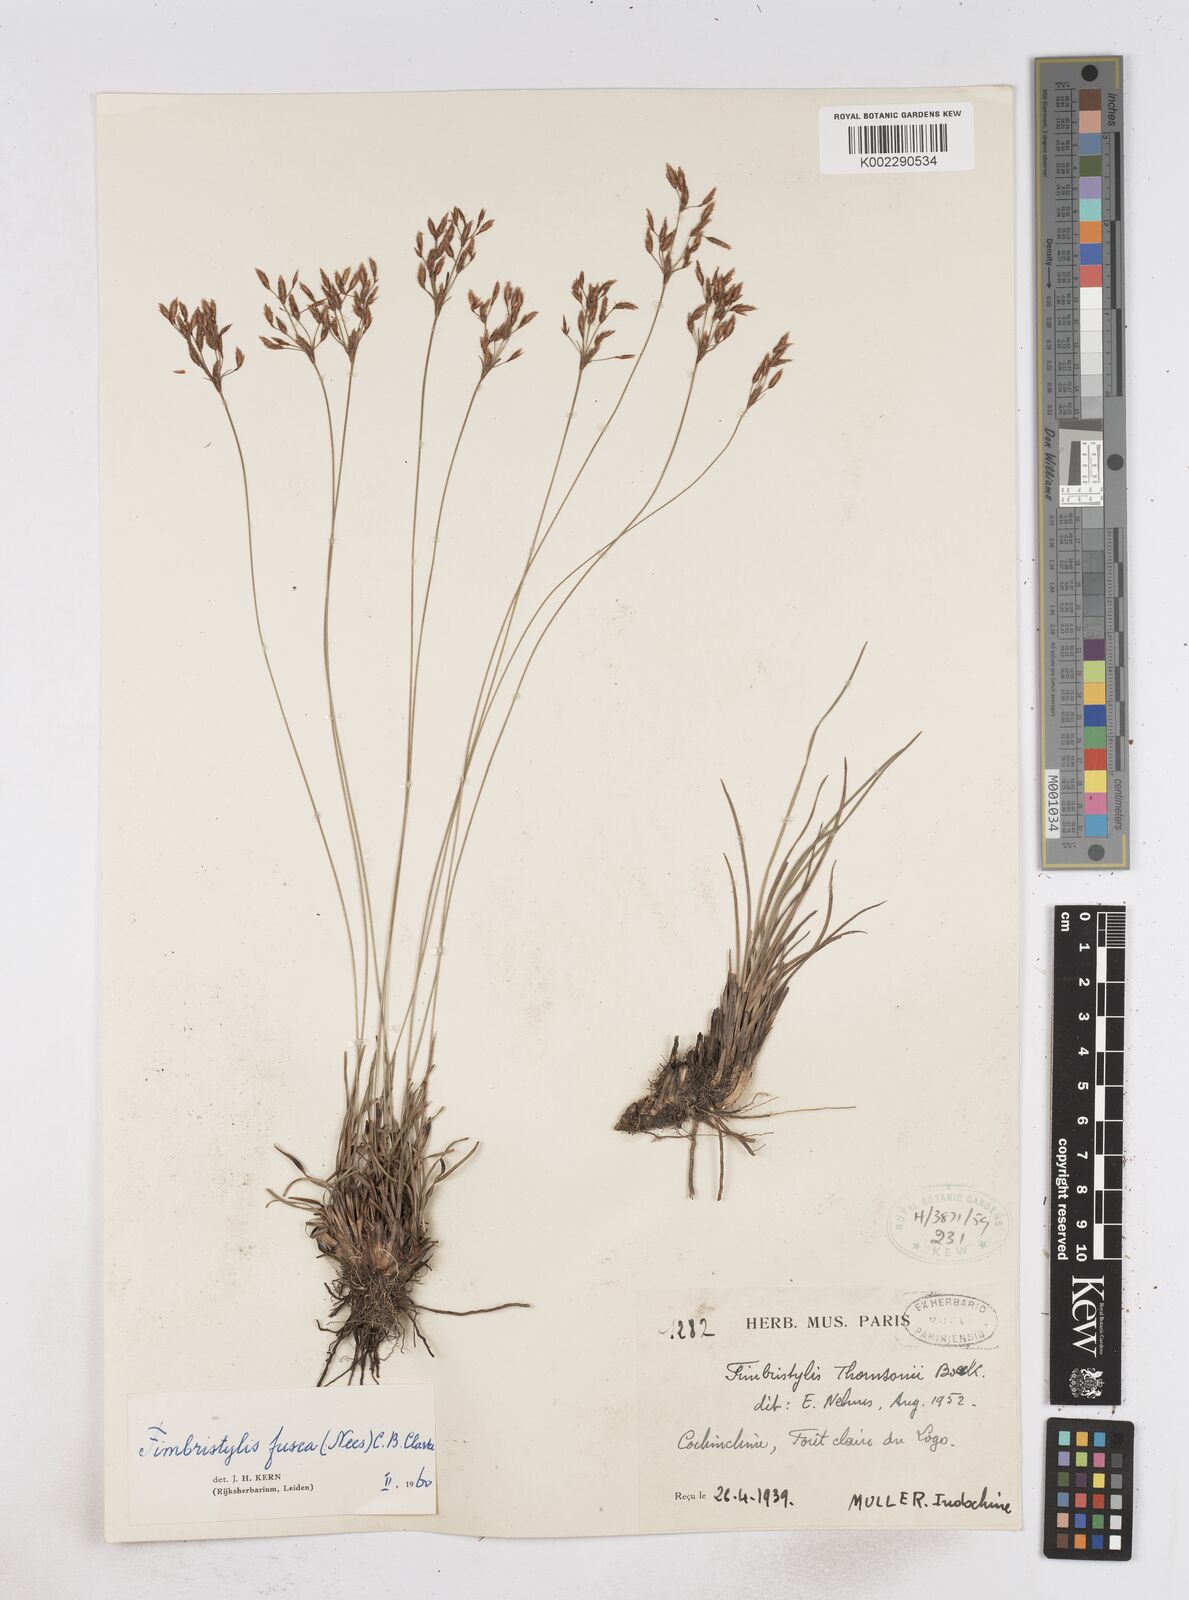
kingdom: Plantae
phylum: Tracheophyta
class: Liliopsida
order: Poales
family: Cyperaceae
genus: Fimbristylis
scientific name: Fimbristylis fusca
